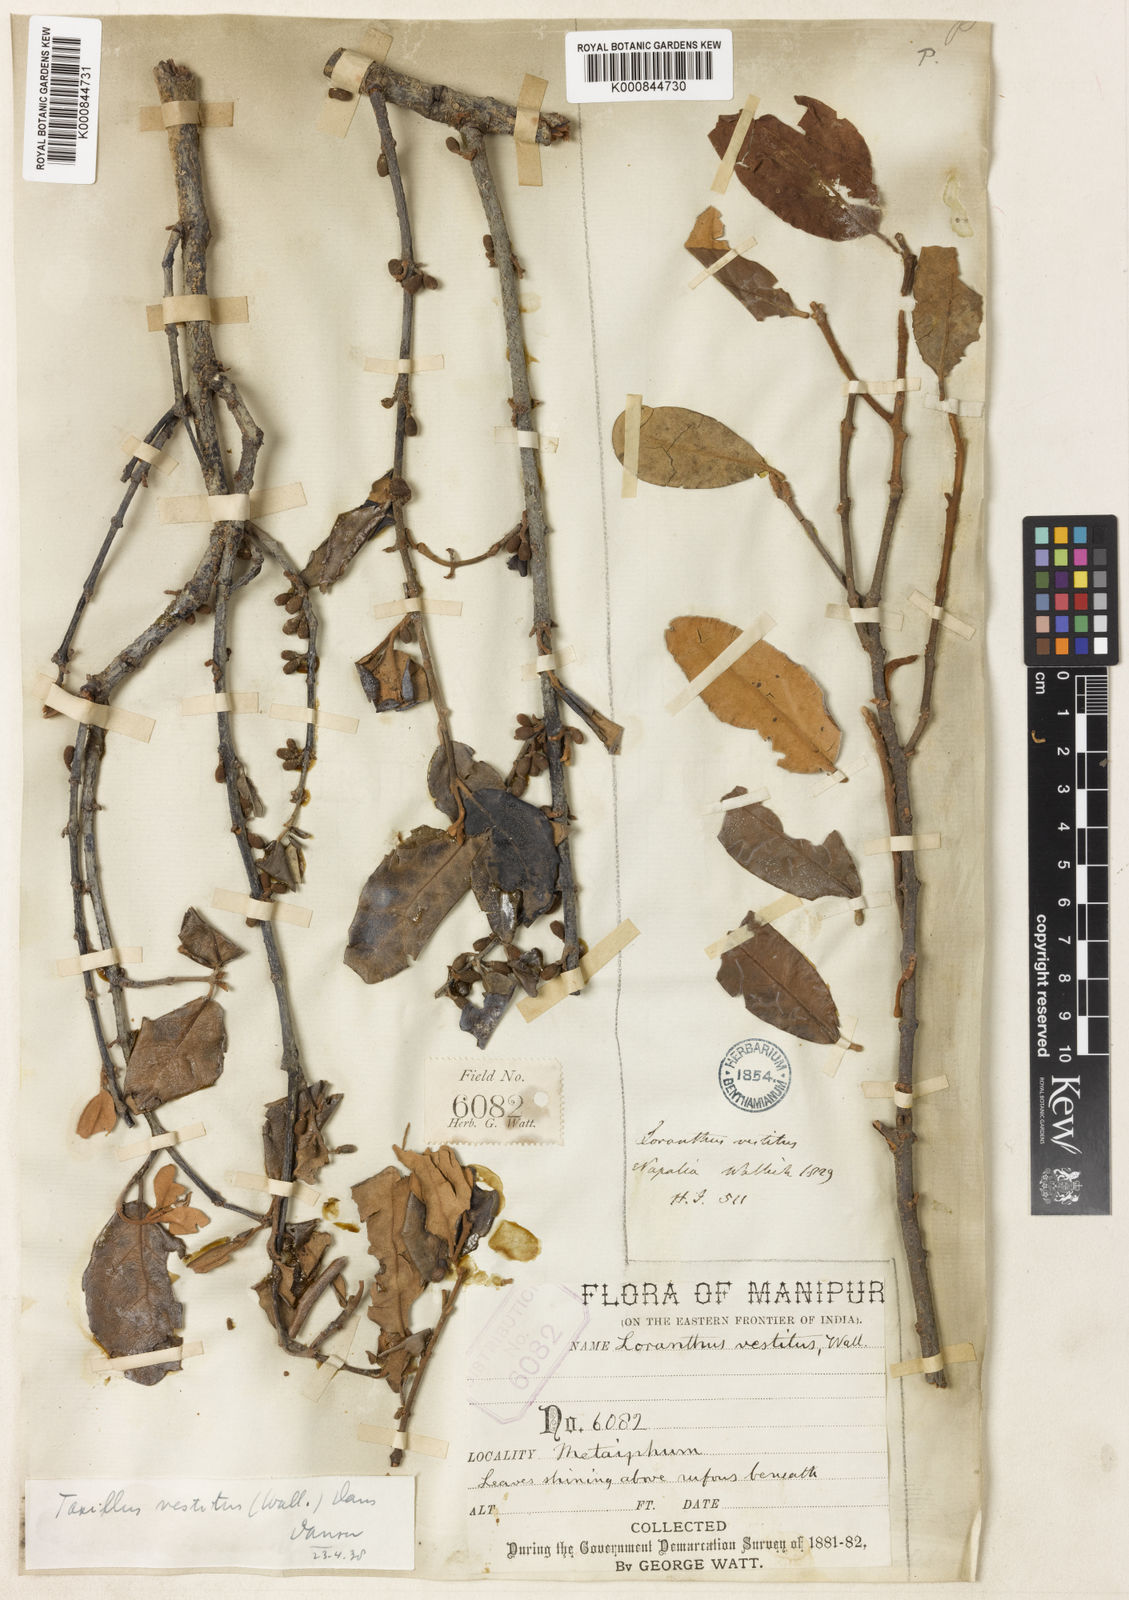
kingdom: Plantae
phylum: Tracheophyta
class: Magnoliopsida
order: Santalales
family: Loranthaceae
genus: Taxillus
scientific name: Taxillus vestitus
